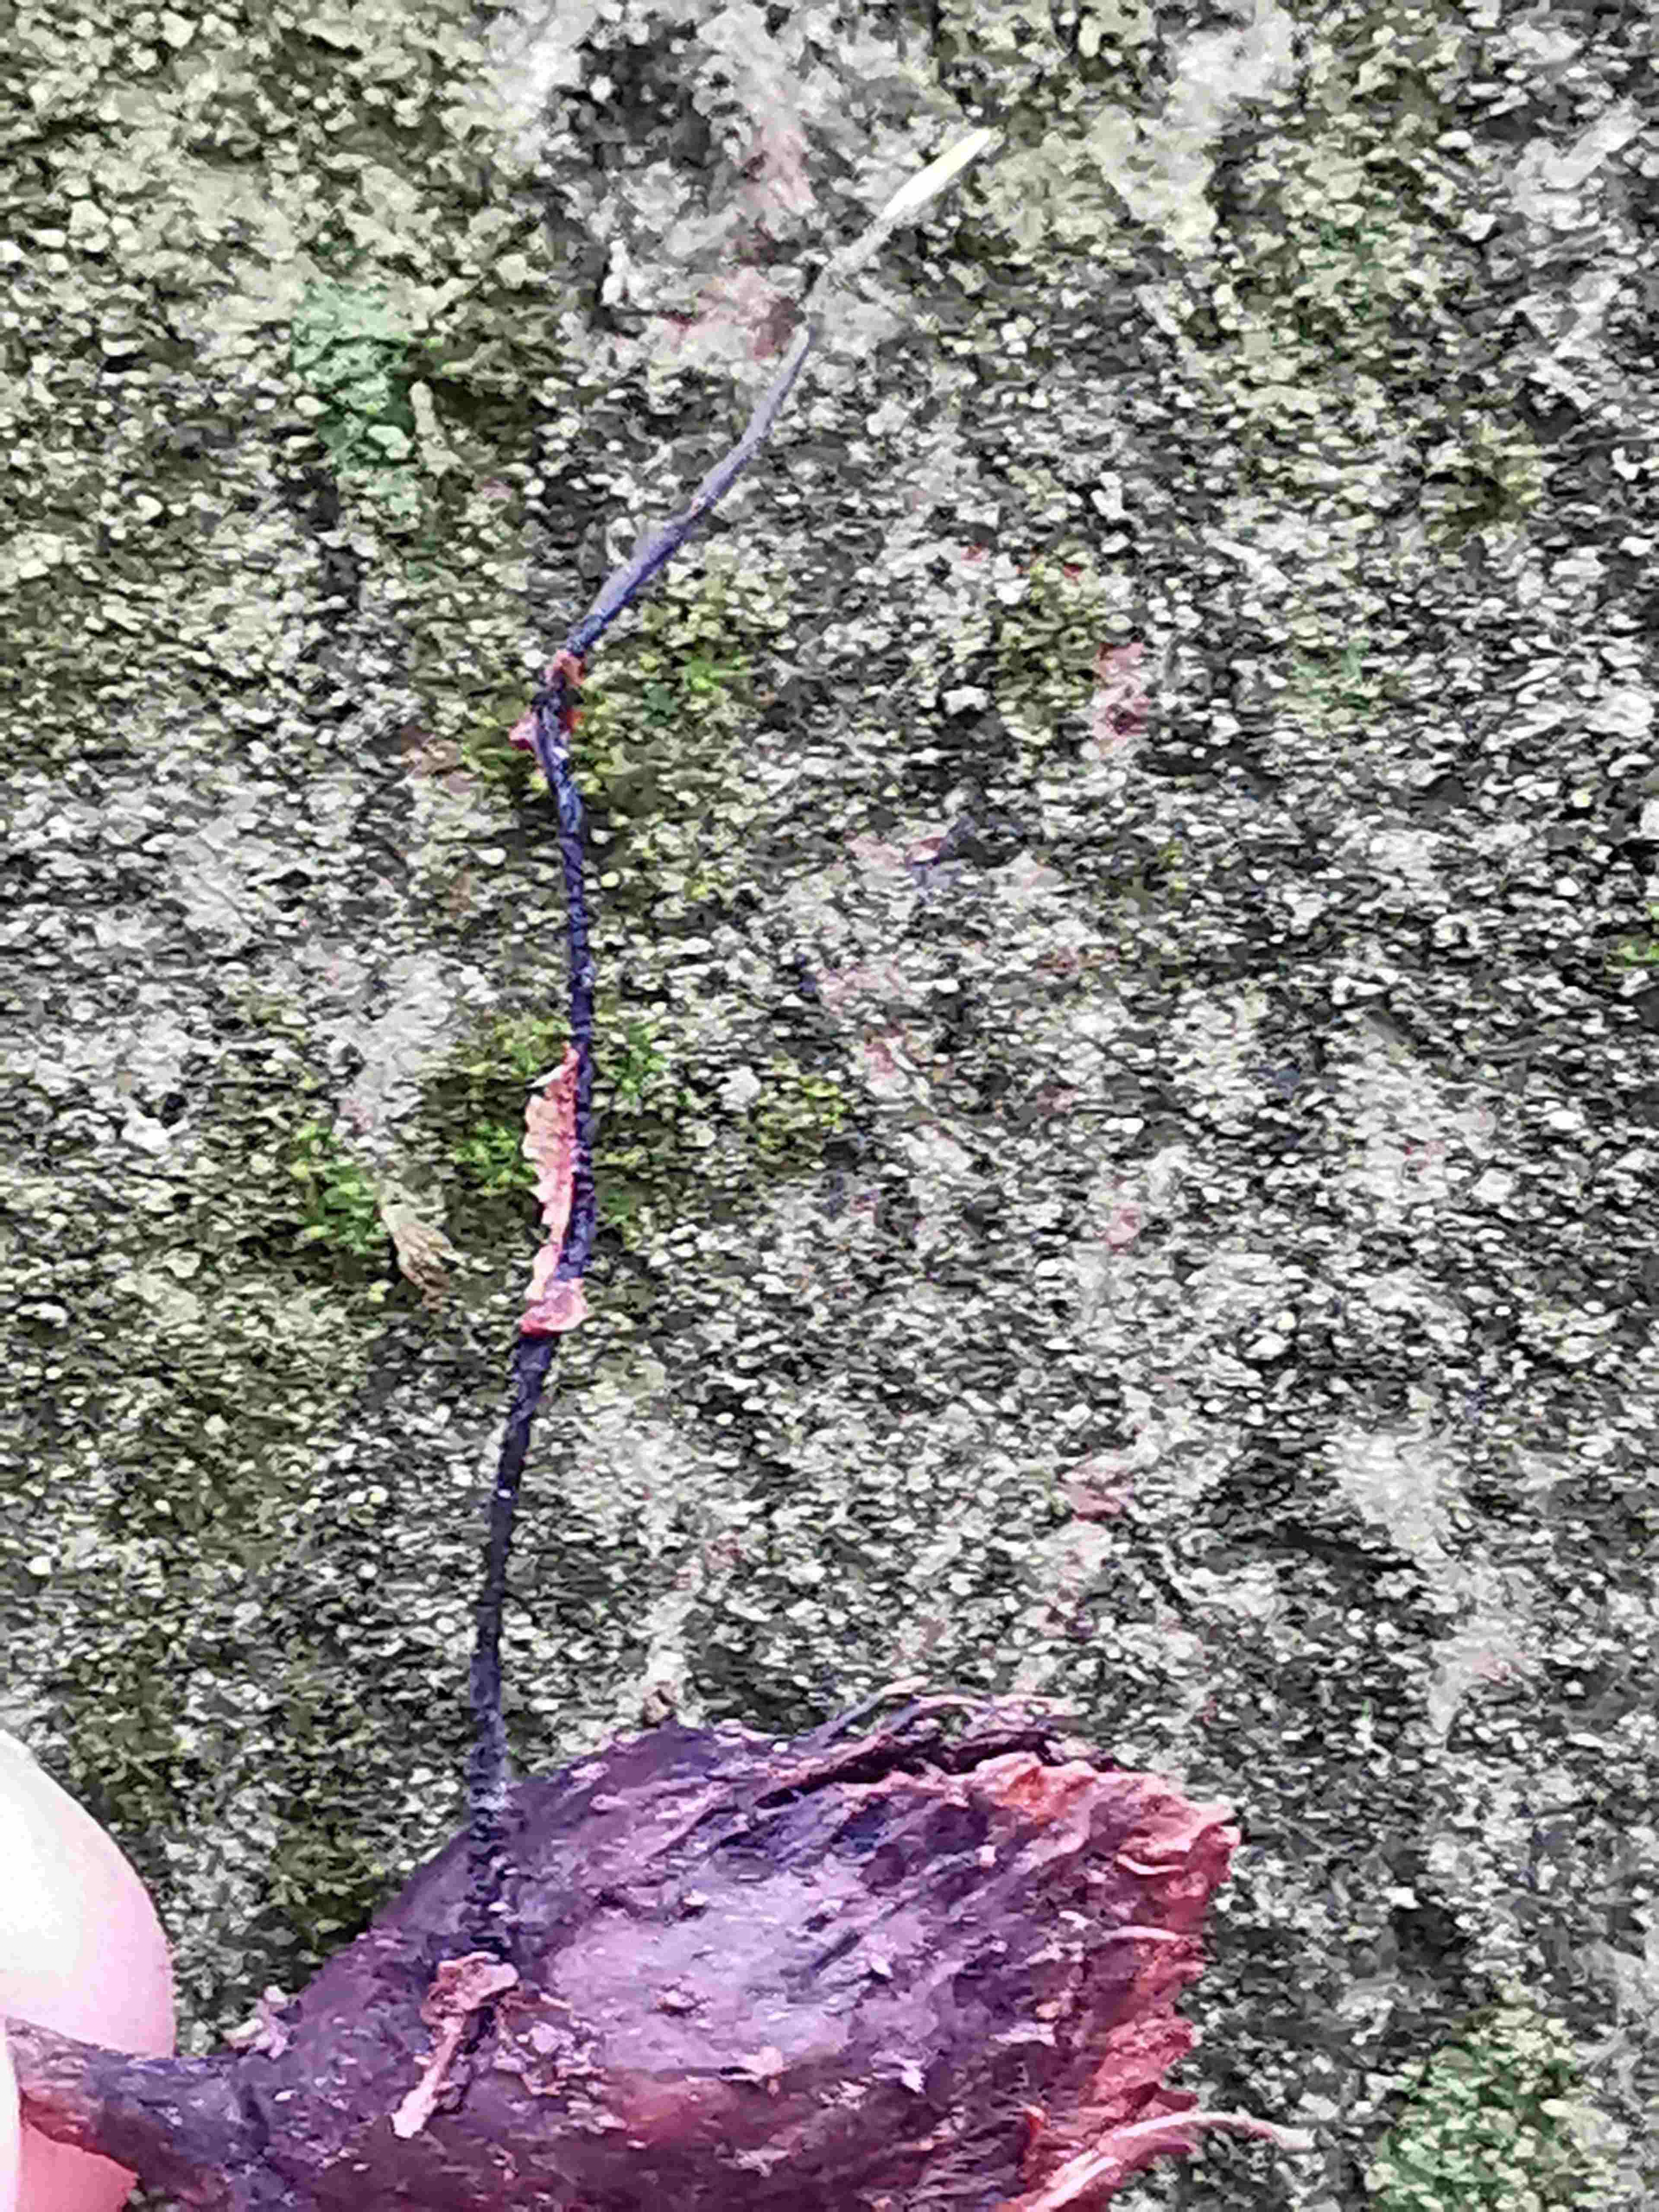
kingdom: Fungi
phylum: Ascomycota
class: Sordariomycetes
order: Xylariales
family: Xylariaceae
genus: Xylaria
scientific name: Xylaria carpophila
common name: bogskål-stødsvamp
